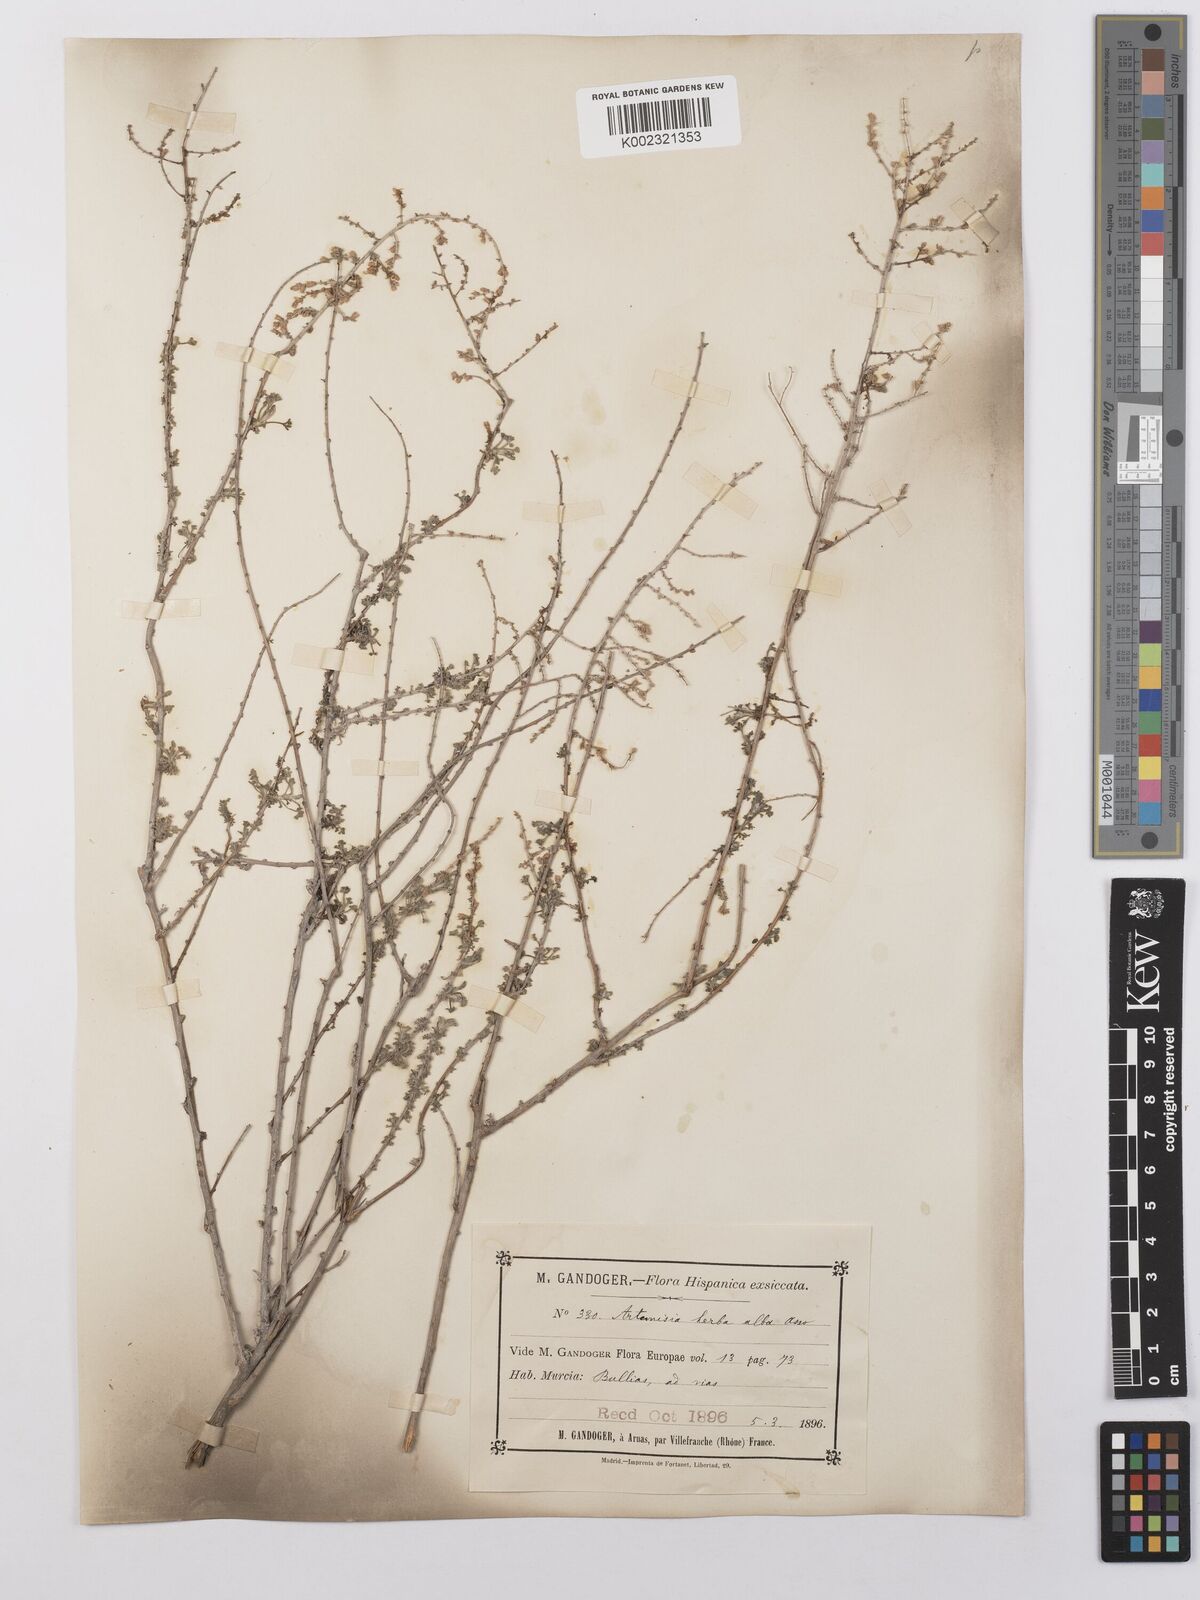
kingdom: Plantae
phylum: Tracheophyta
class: Magnoliopsida
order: Asterales
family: Asteraceae
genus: Artemisia
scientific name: Artemisia herba-alba
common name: White wormwood
